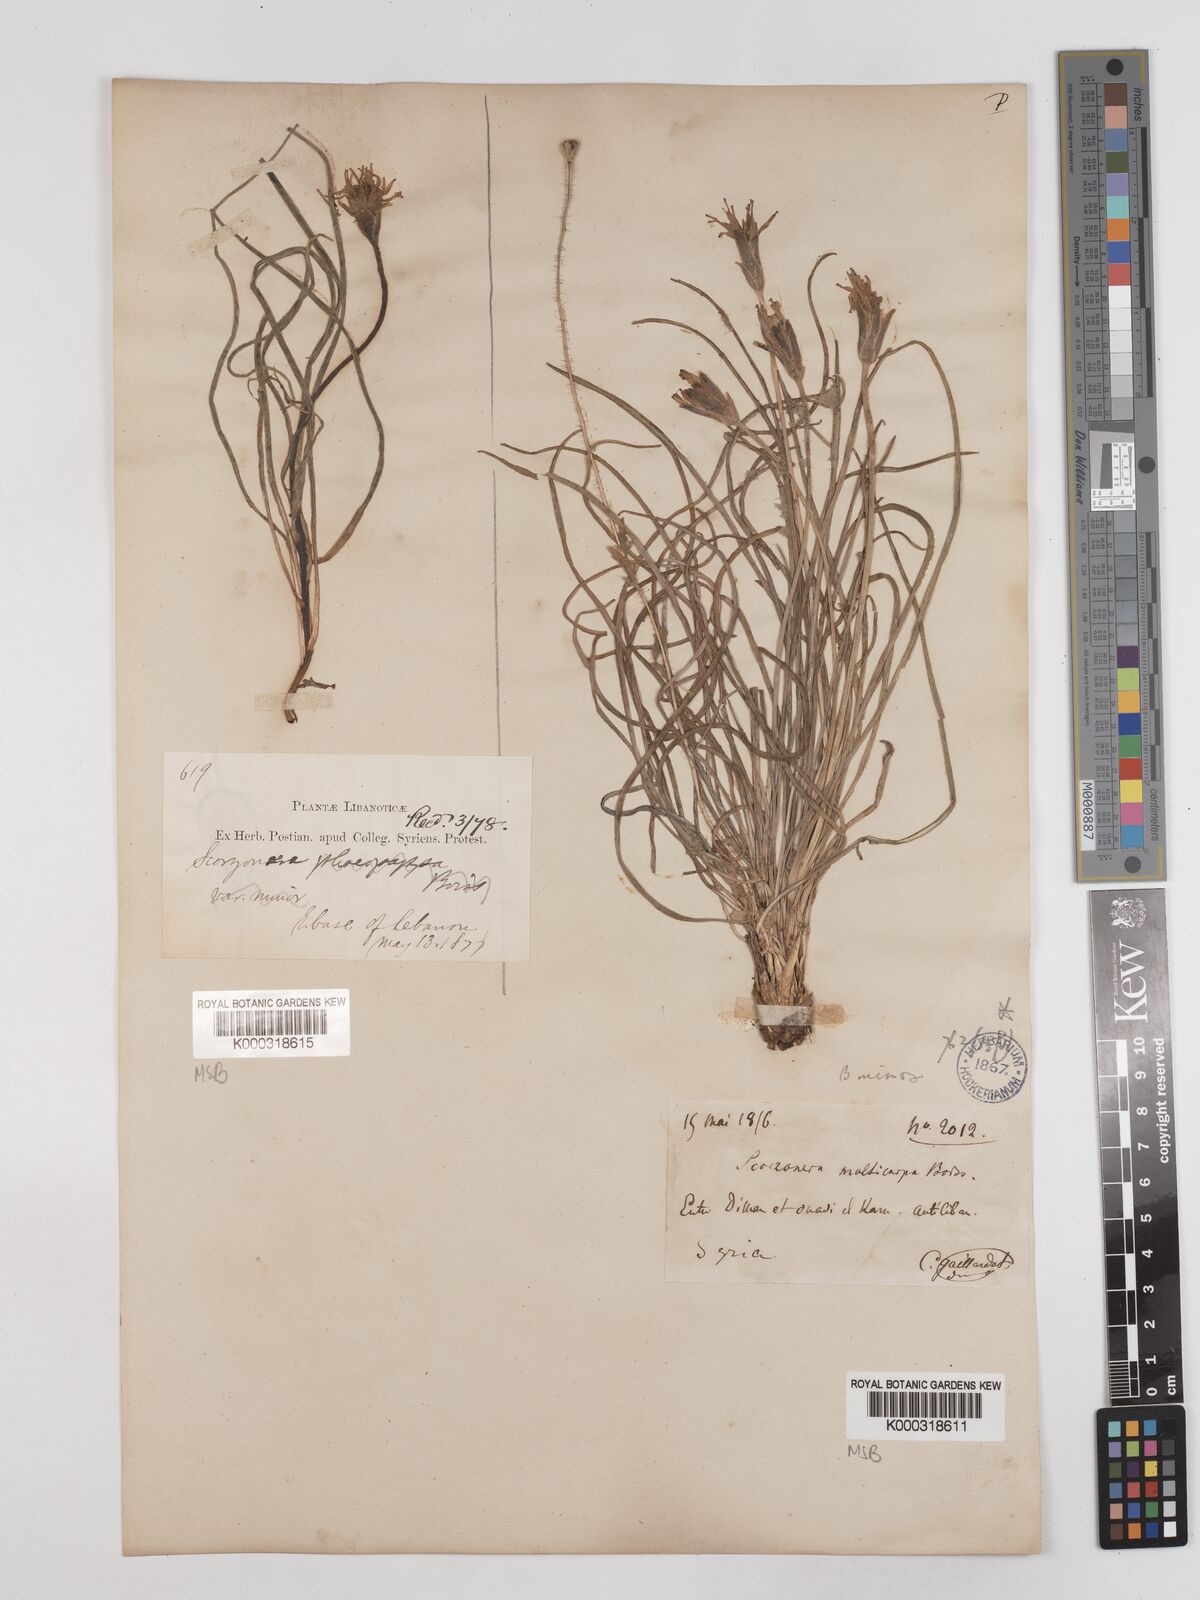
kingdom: Plantae
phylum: Tracheophyta
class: Magnoliopsida
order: Asterales
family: Asteraceae
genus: Pseudopodospermum
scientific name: Pseudopodospermum phaeopappum
